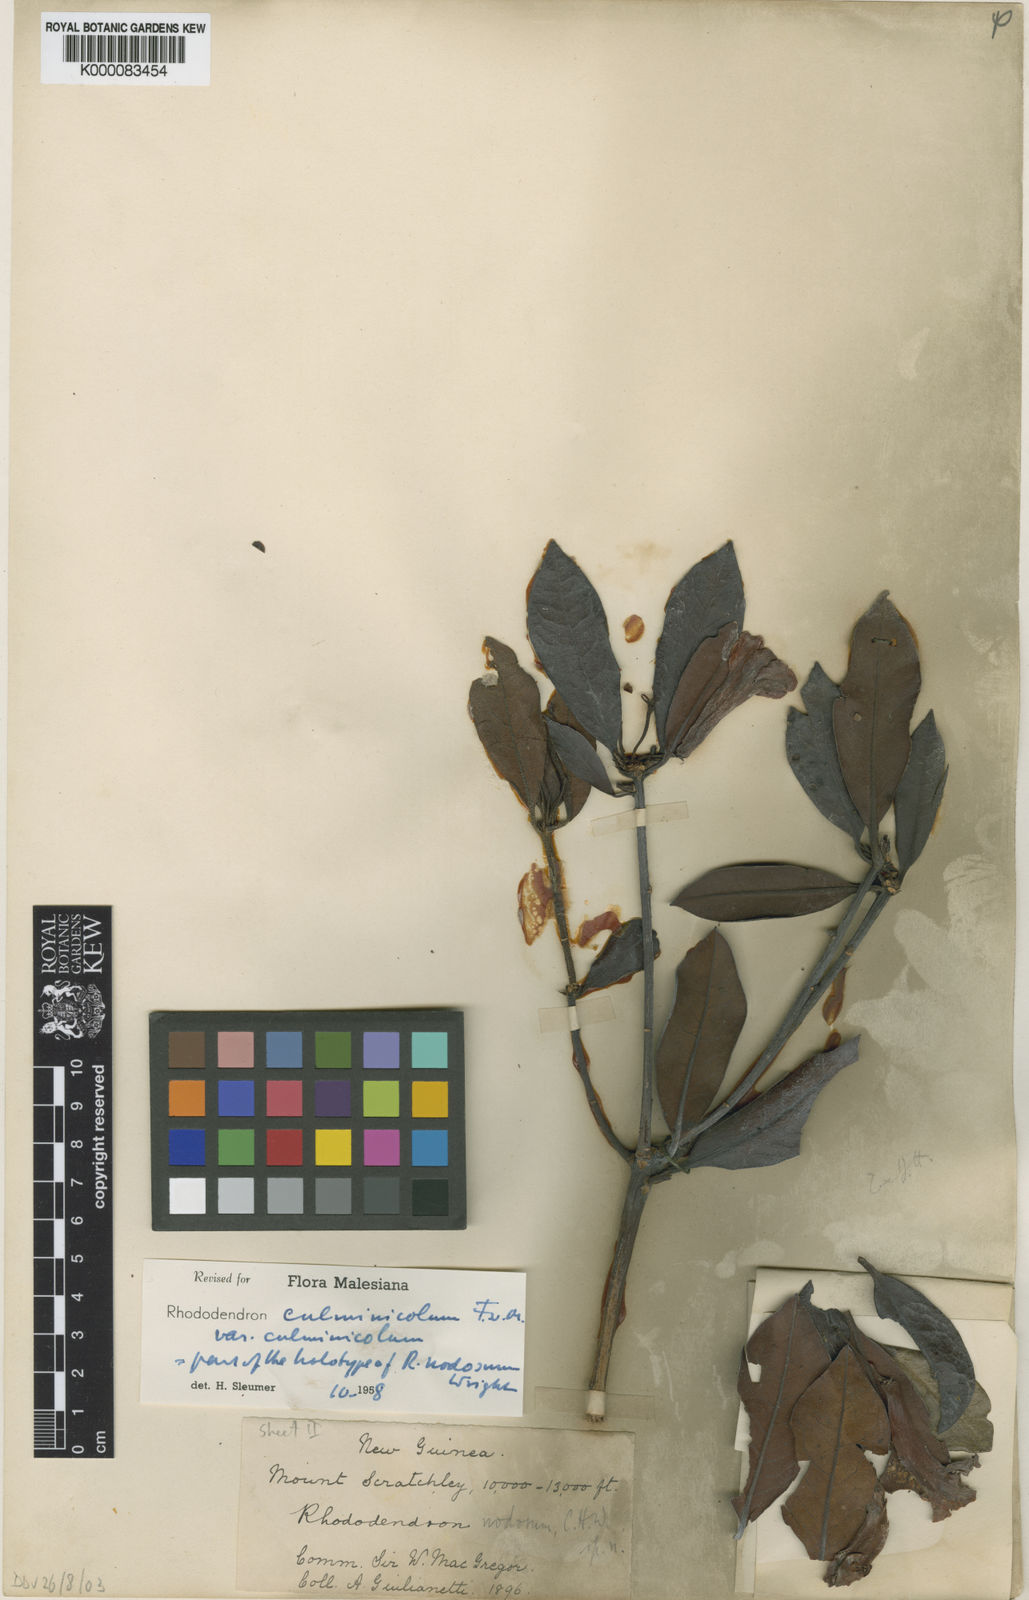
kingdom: Plantae
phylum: Tracheophyta
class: Magnoliopsida
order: Ericales
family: Ericaceae
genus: Rhododendron
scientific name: Rhododendron culminicola
